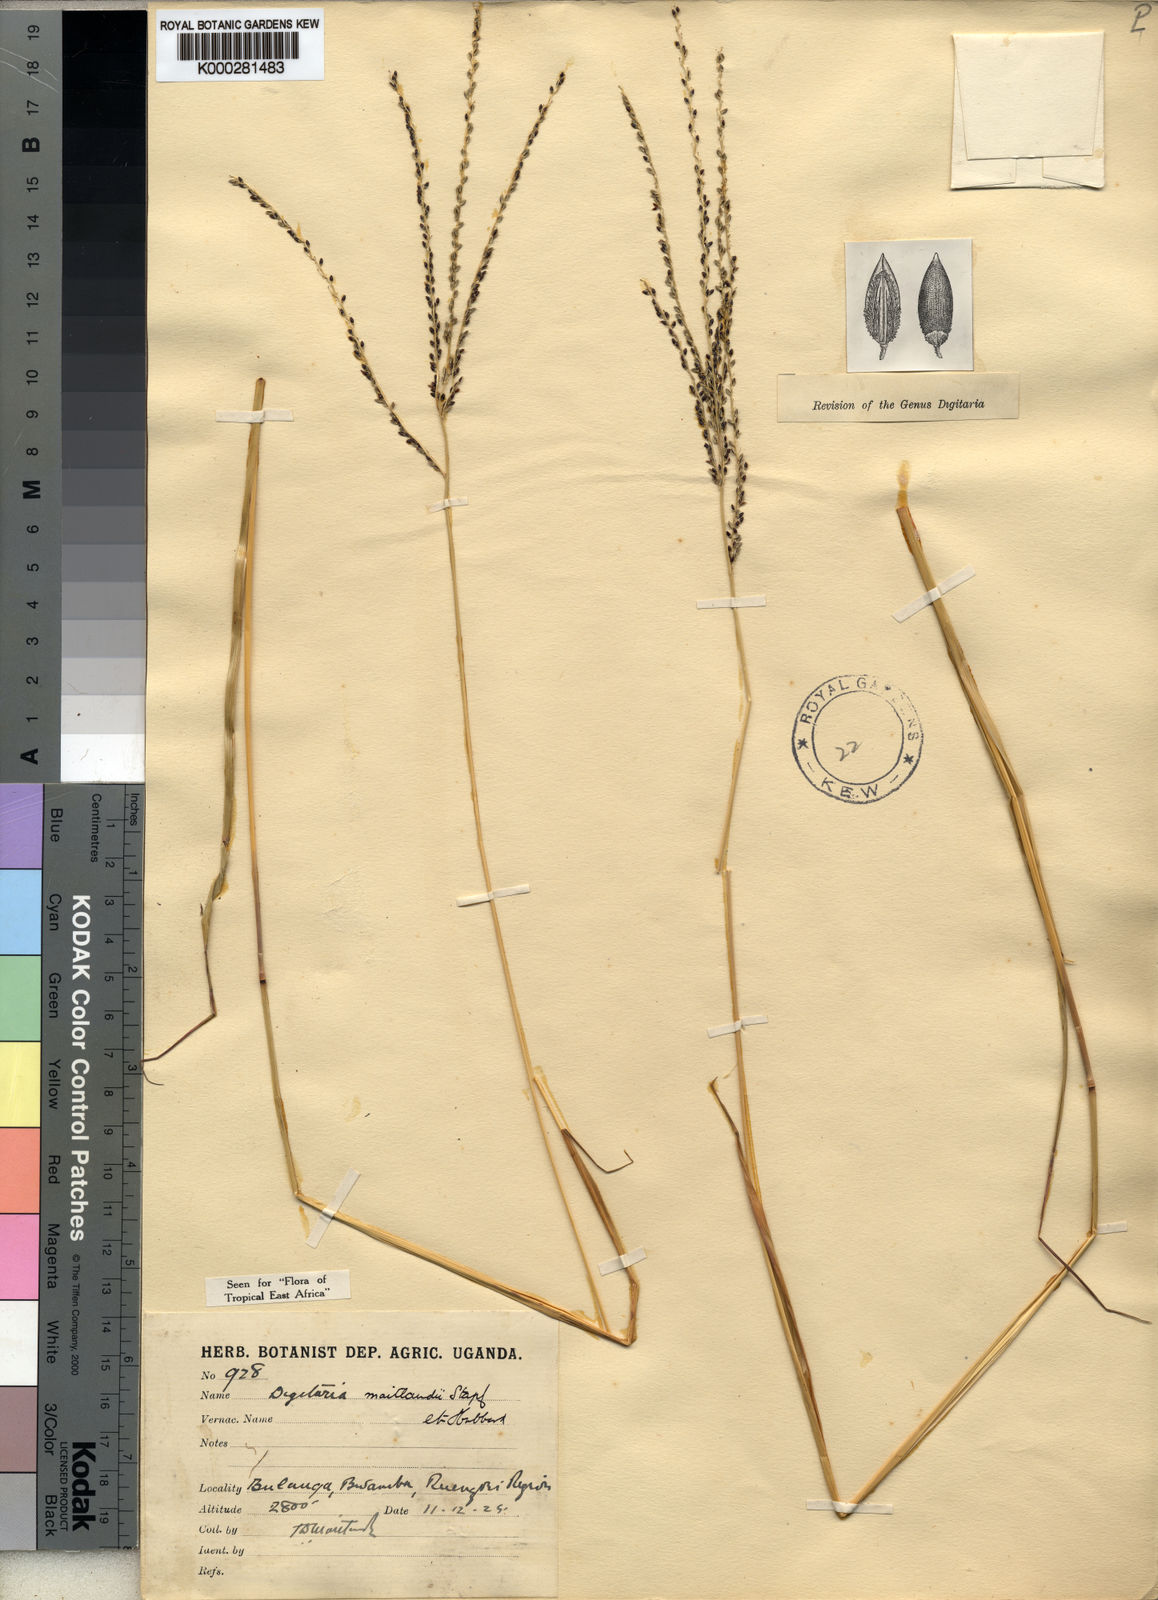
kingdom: Plantae
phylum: Tracheophyta
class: Liliopsida
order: Poales
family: Poaceae
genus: Digitaria
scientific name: Digitaria maitlandii
